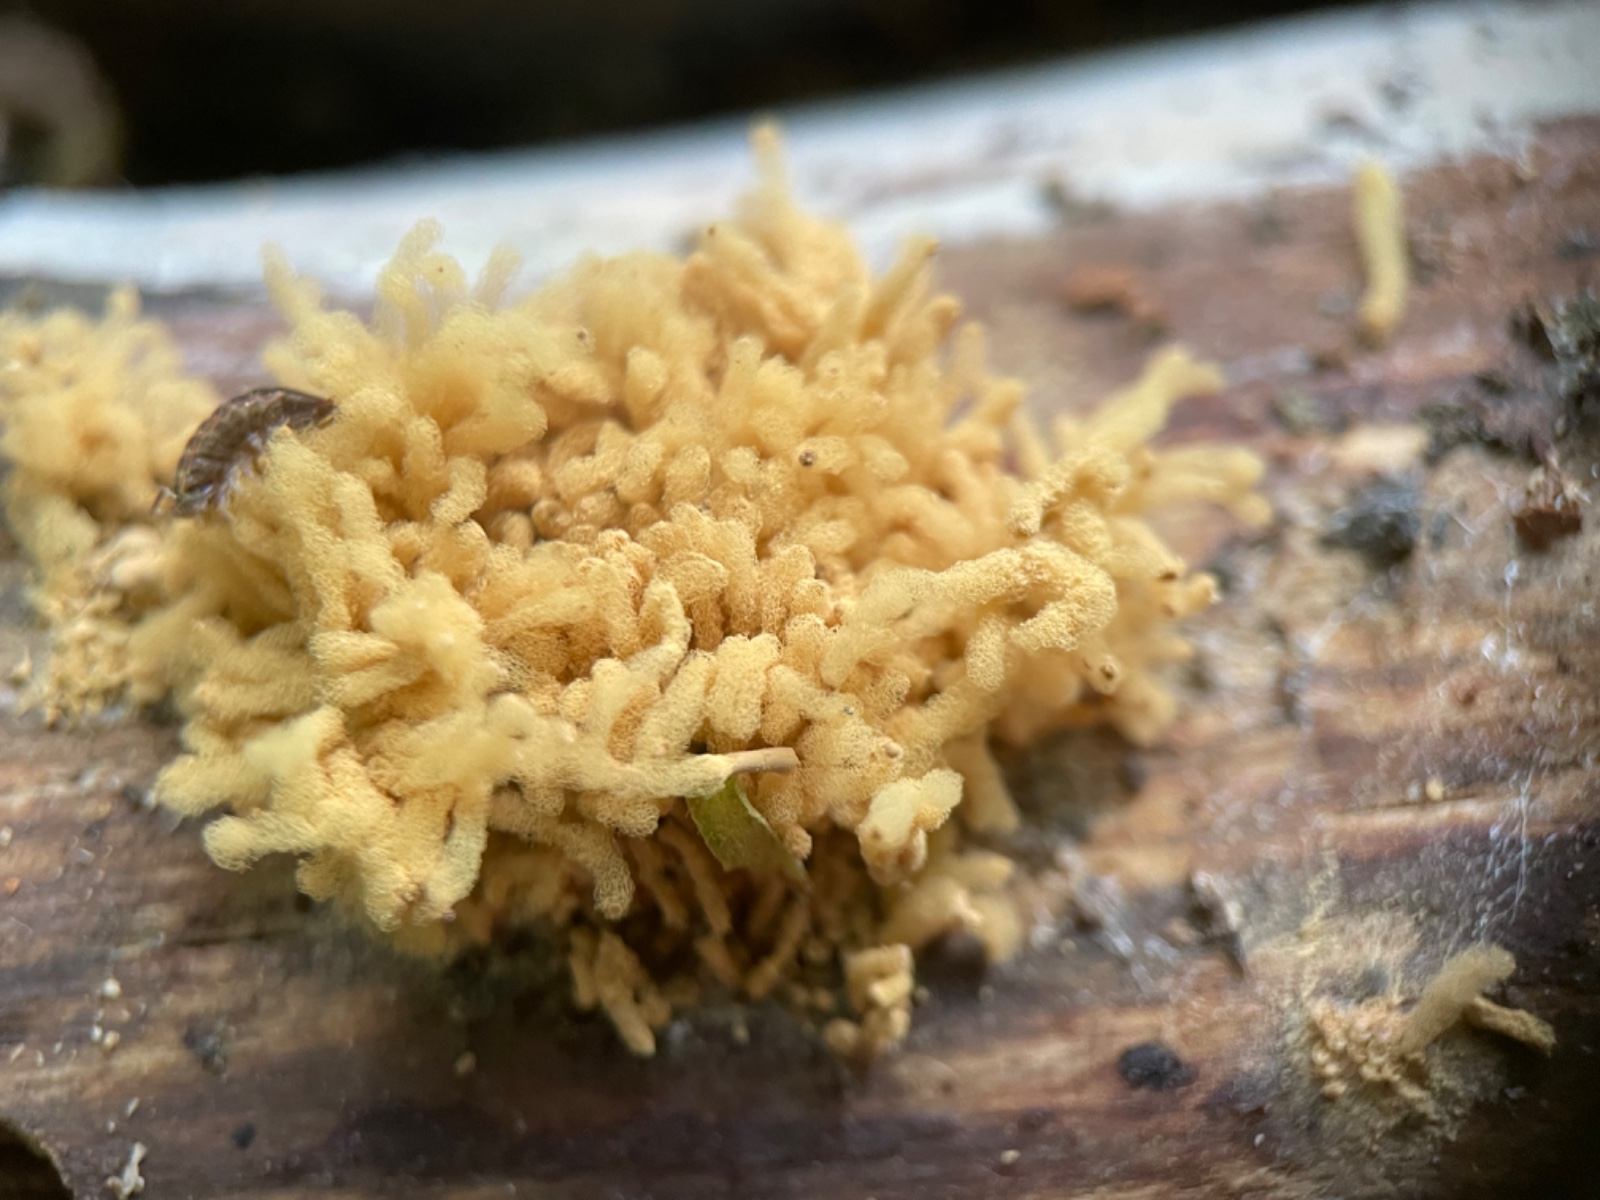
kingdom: Protozoa
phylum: Mycetozoa
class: Myxomycetes
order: Trichiales
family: Arcyriaceae
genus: Arcyria
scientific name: Arcyria obvelata
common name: okkergul skålsvøb
